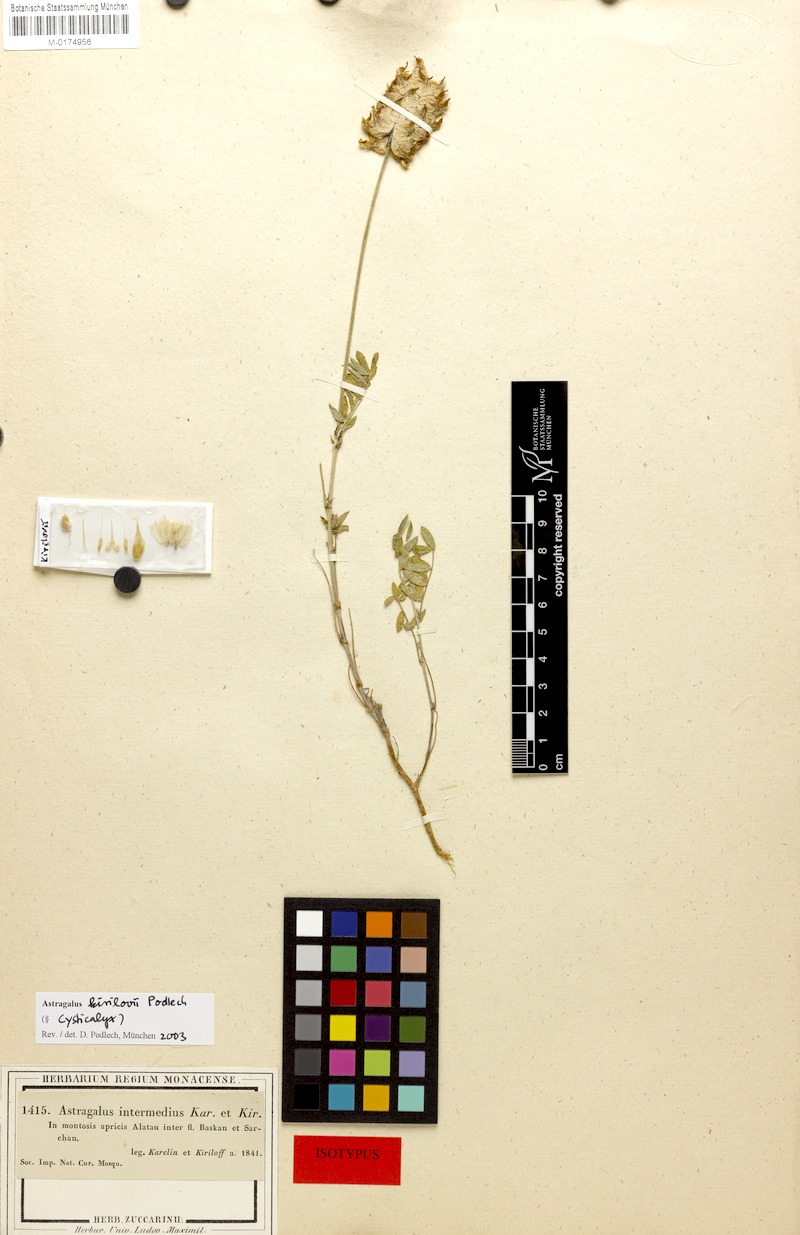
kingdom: Plantae
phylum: Tracheophyta
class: Magnoliopsida
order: Fabales
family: Fabaceae
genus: Astragalus
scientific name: Astragalus kirilovii
